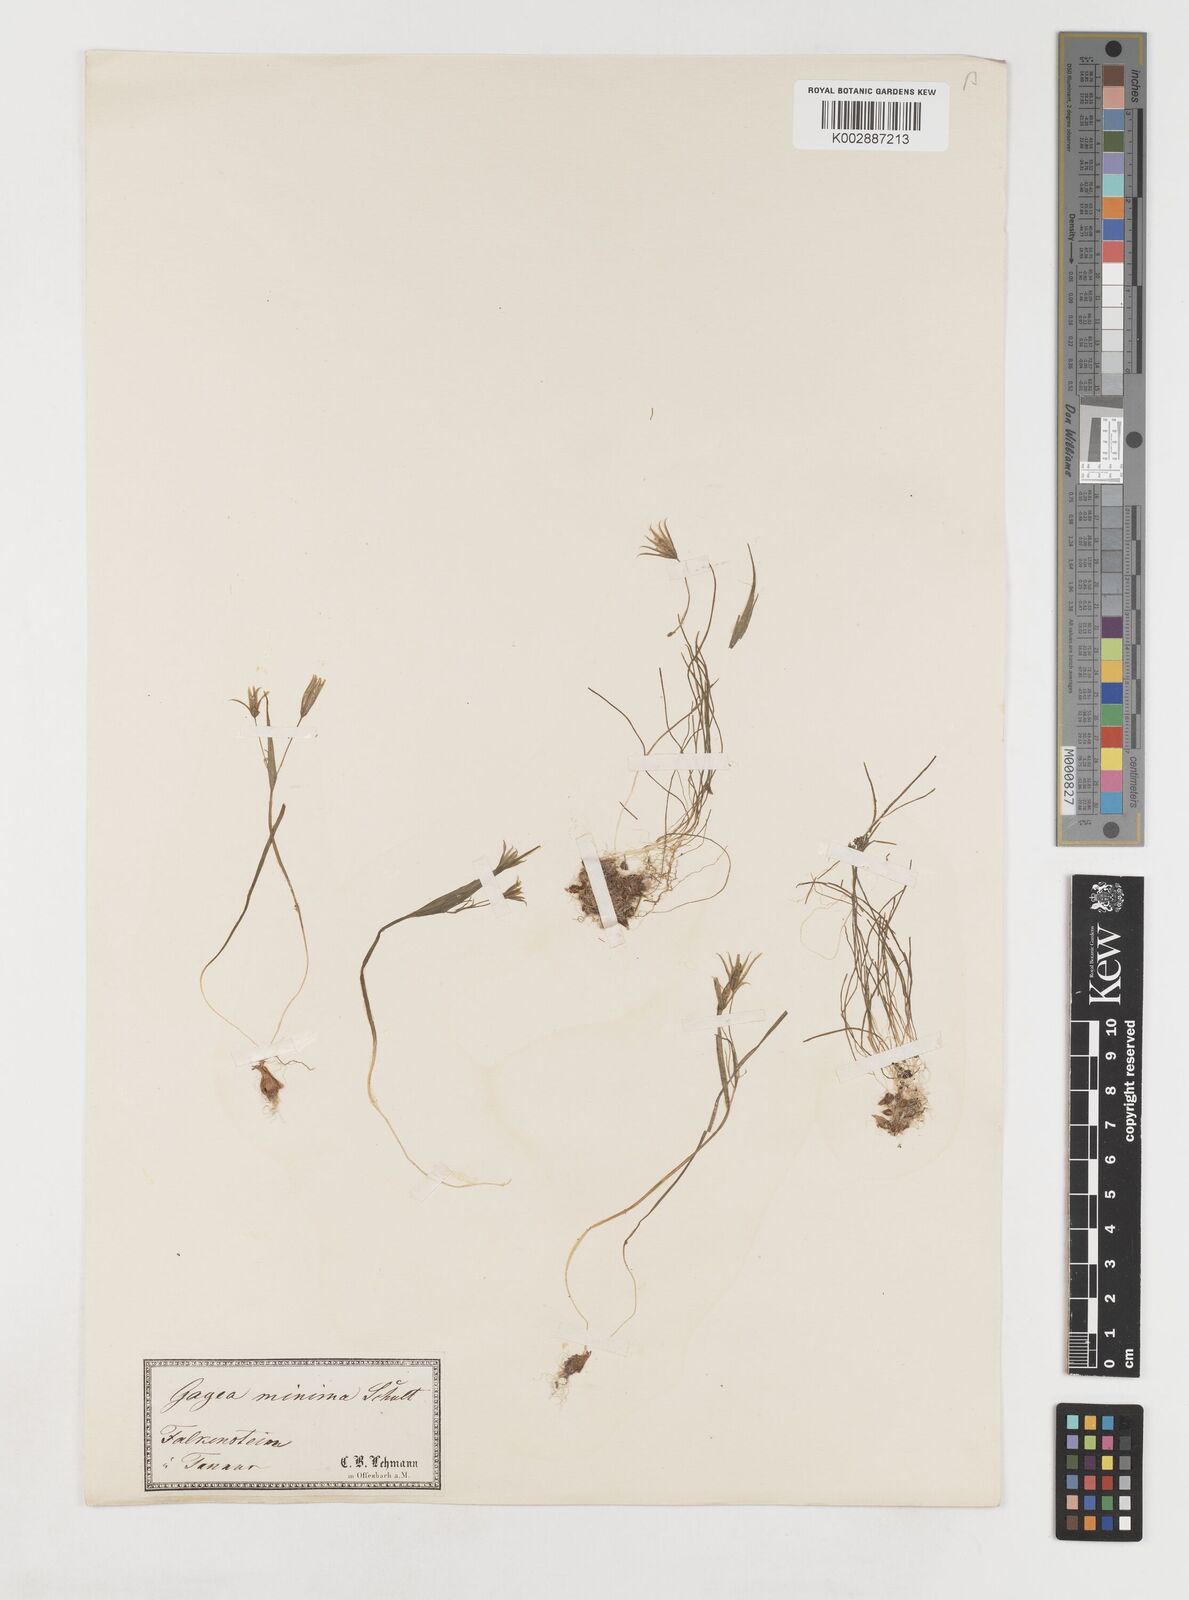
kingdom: Plantae
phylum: Tracheophyta
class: Liliopsida
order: Liliales
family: Liliaceae
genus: Gagea
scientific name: Gagea minima
